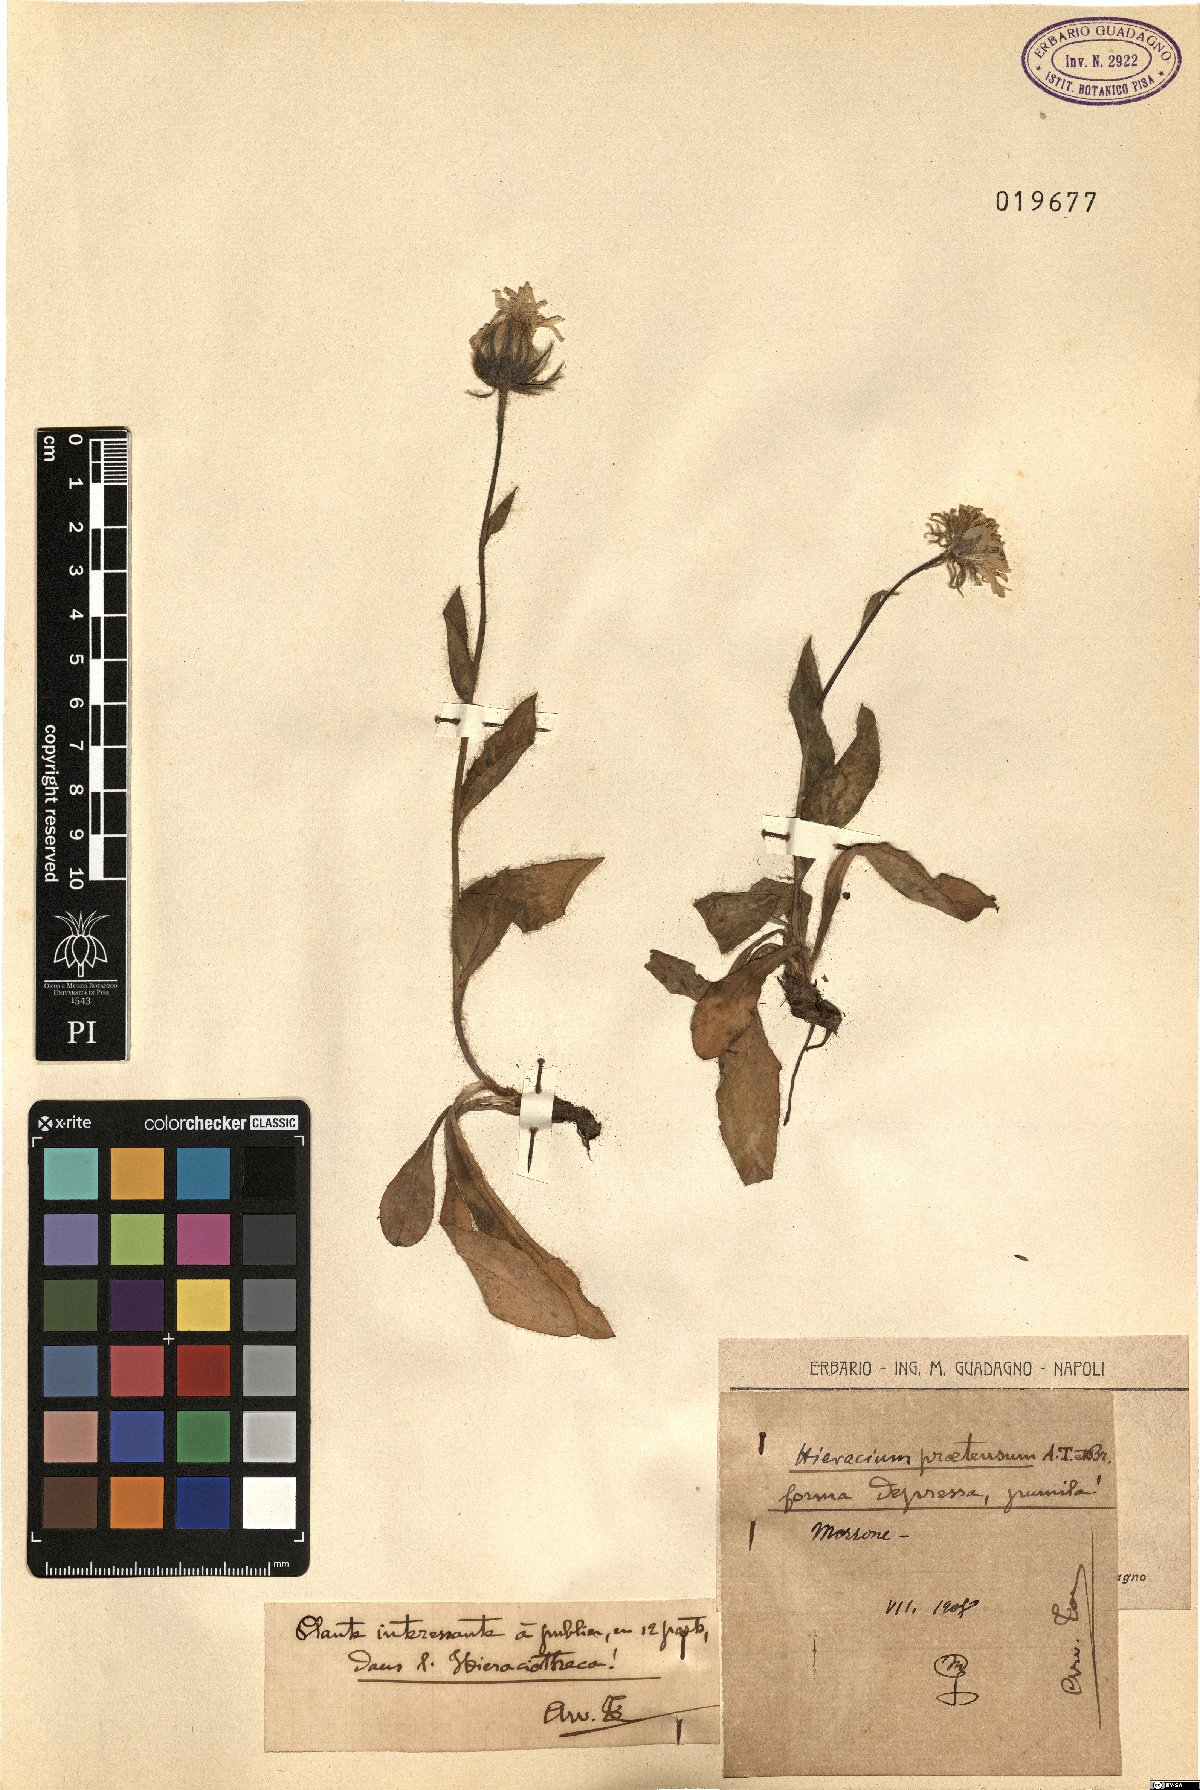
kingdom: Plantae
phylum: Tracheophyta
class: Magnoliopsida
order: Asterales
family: Asteraceae
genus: Hieracium
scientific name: Hieracium pilosum
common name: Fimbriate-pitted hawkweed
